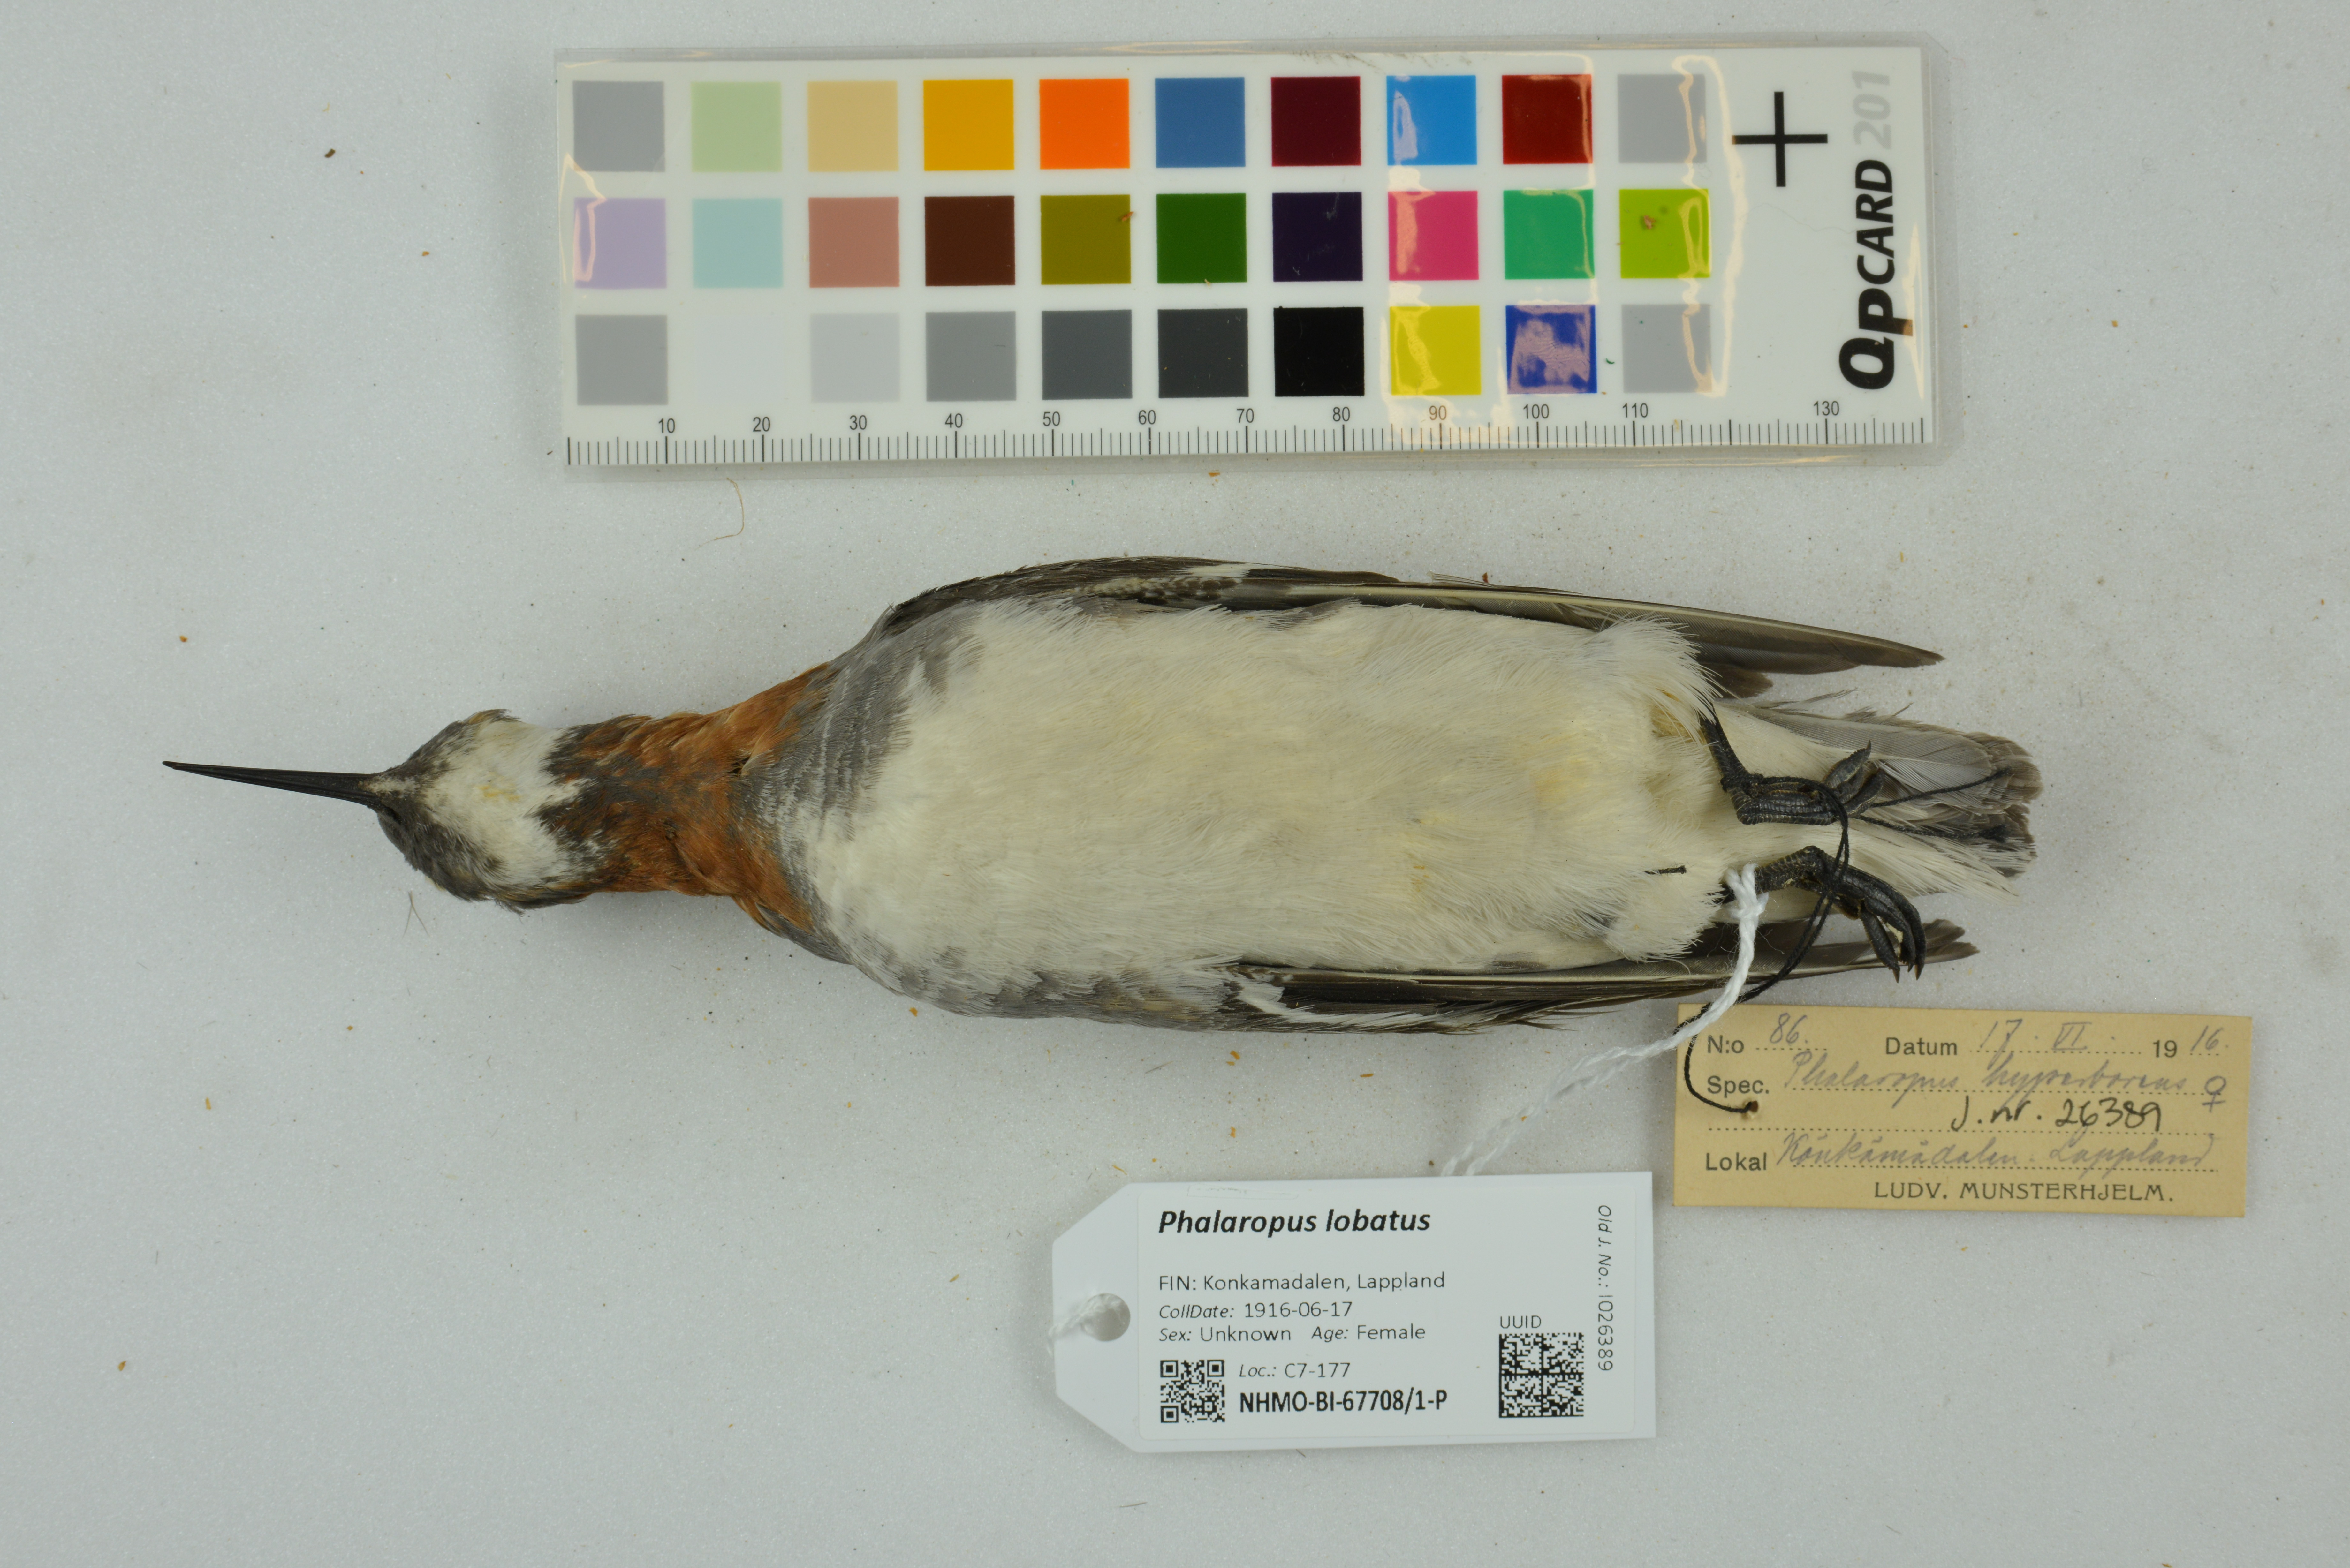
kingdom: Animalia
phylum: Chordata
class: Aves
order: Charadriiformes
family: Scolopacidae
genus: Phalaropus
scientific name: Phalaropus lobatus
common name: Red-necked phalarope
